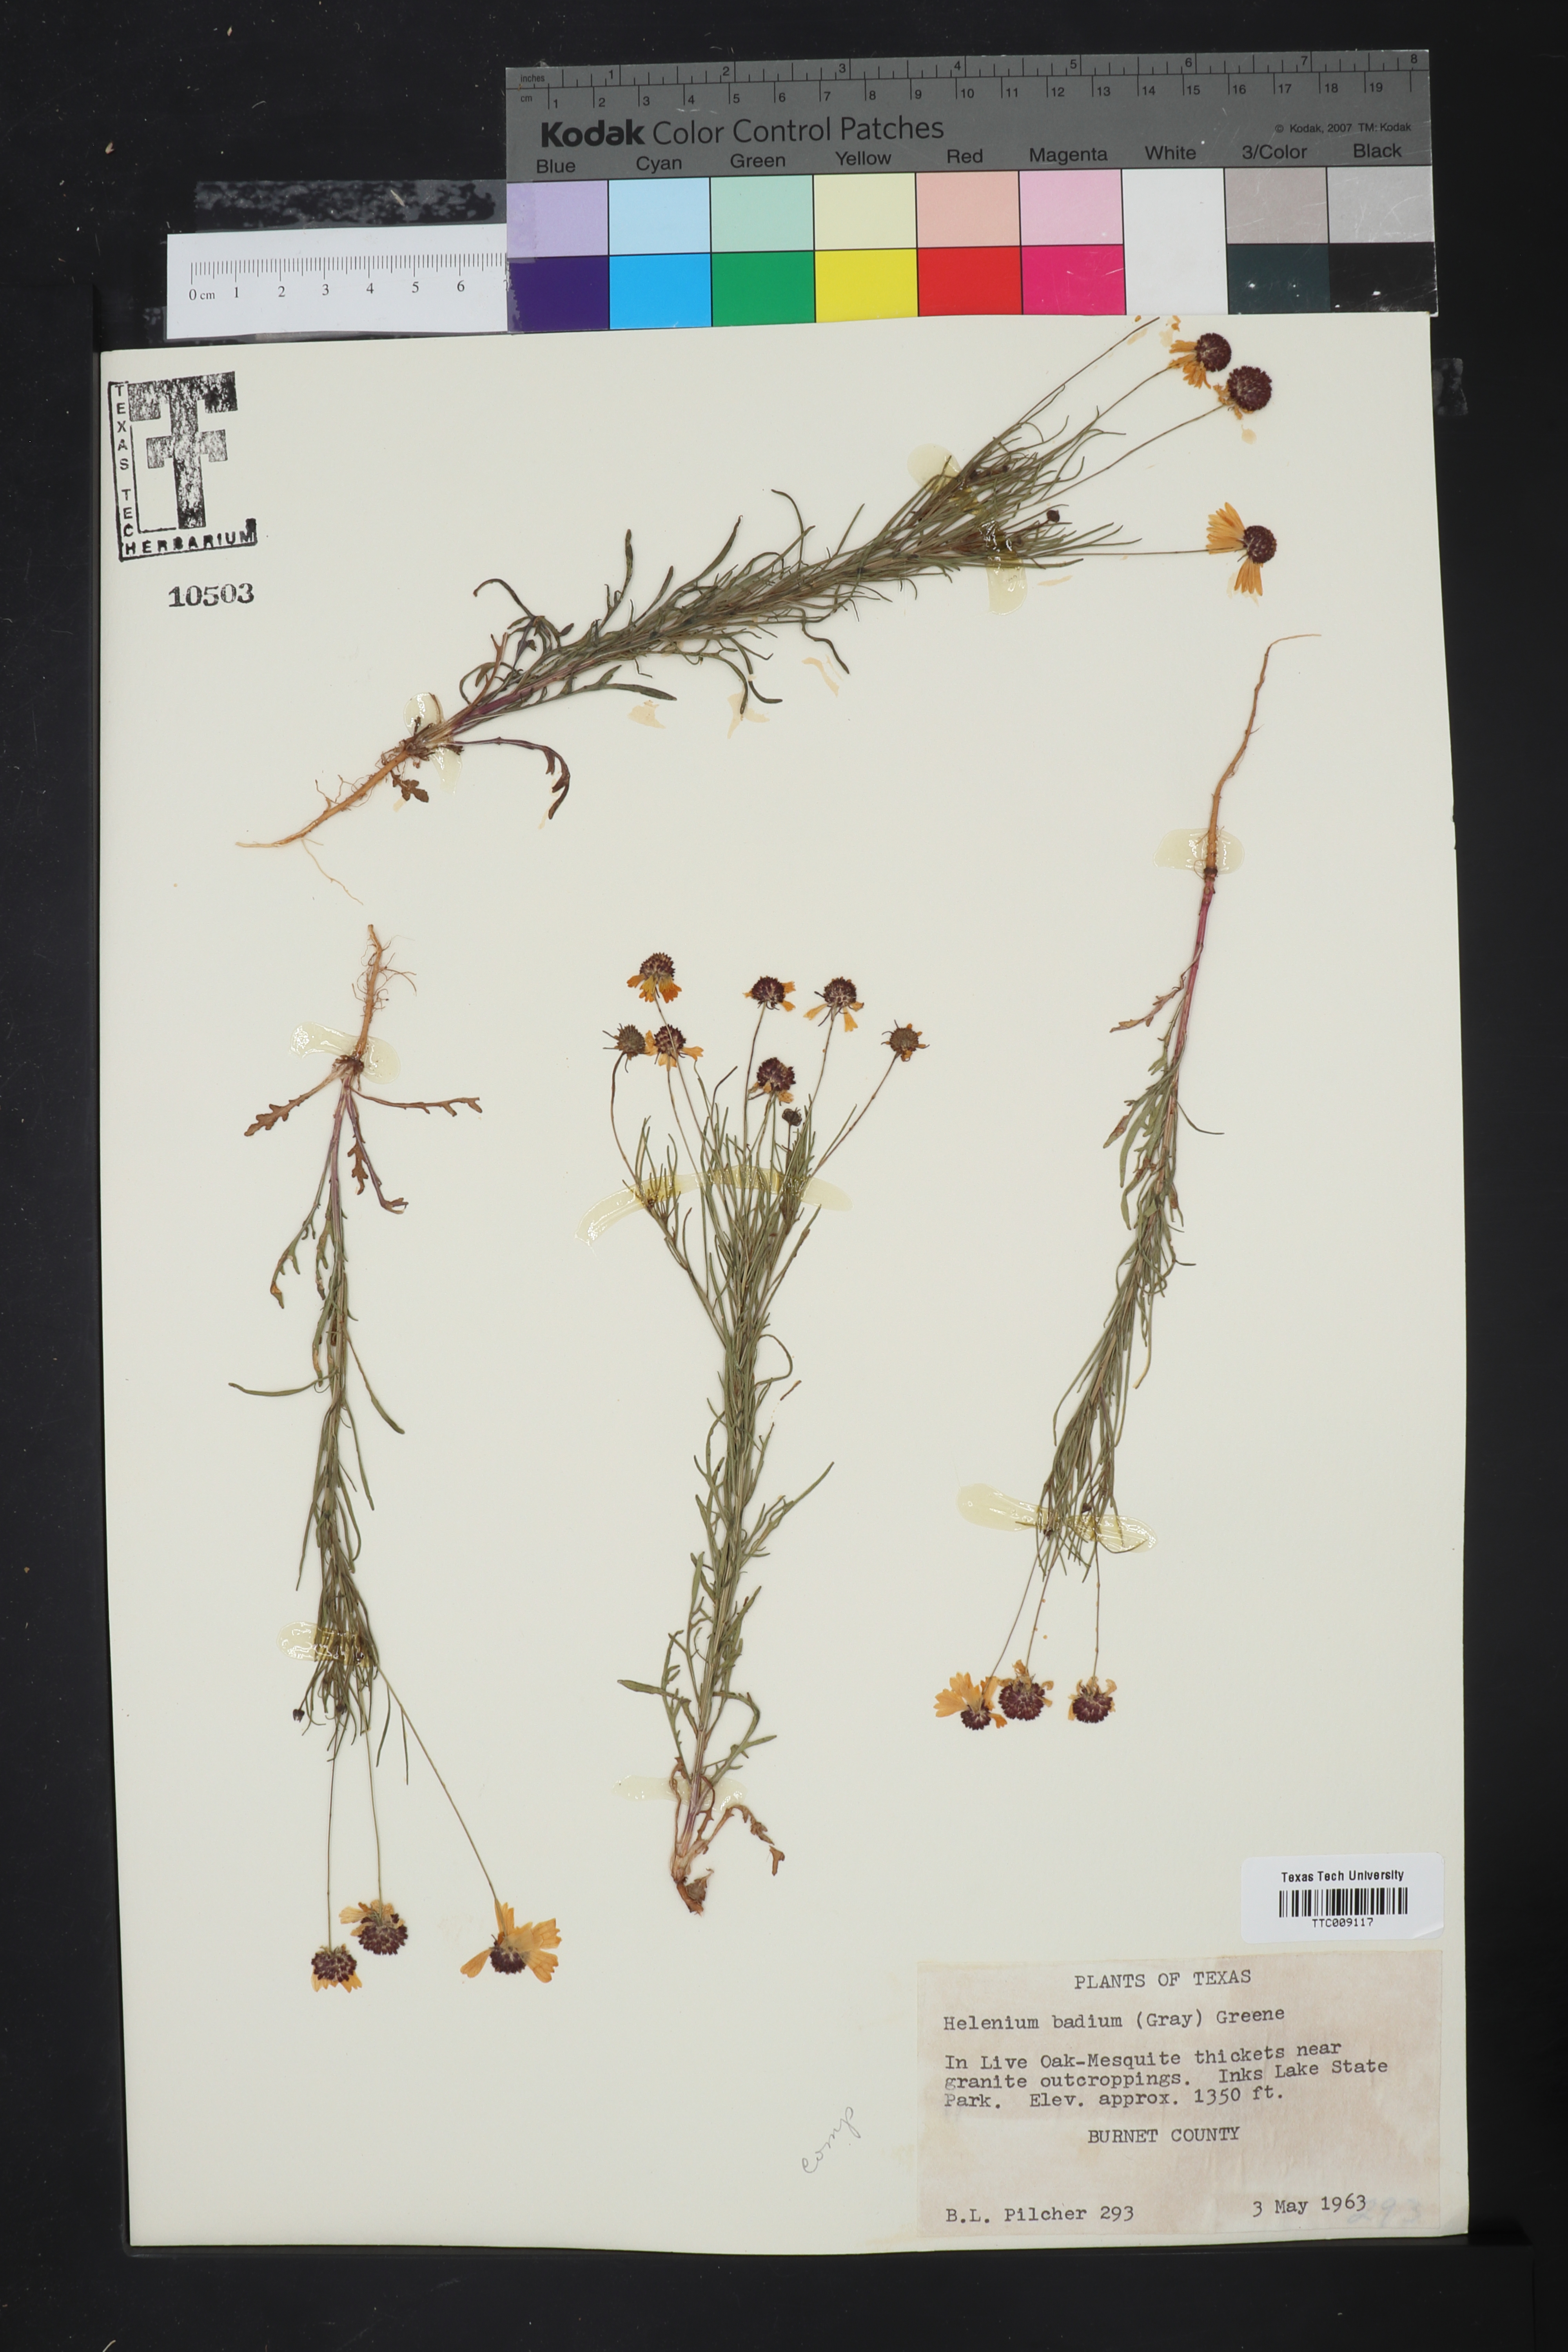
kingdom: Plantae
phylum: Tracheophyta
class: Magnoliopsida
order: Asterales
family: Asteraceae
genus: Helenium
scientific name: Helenium amarum
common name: Bitter sneezeweed
